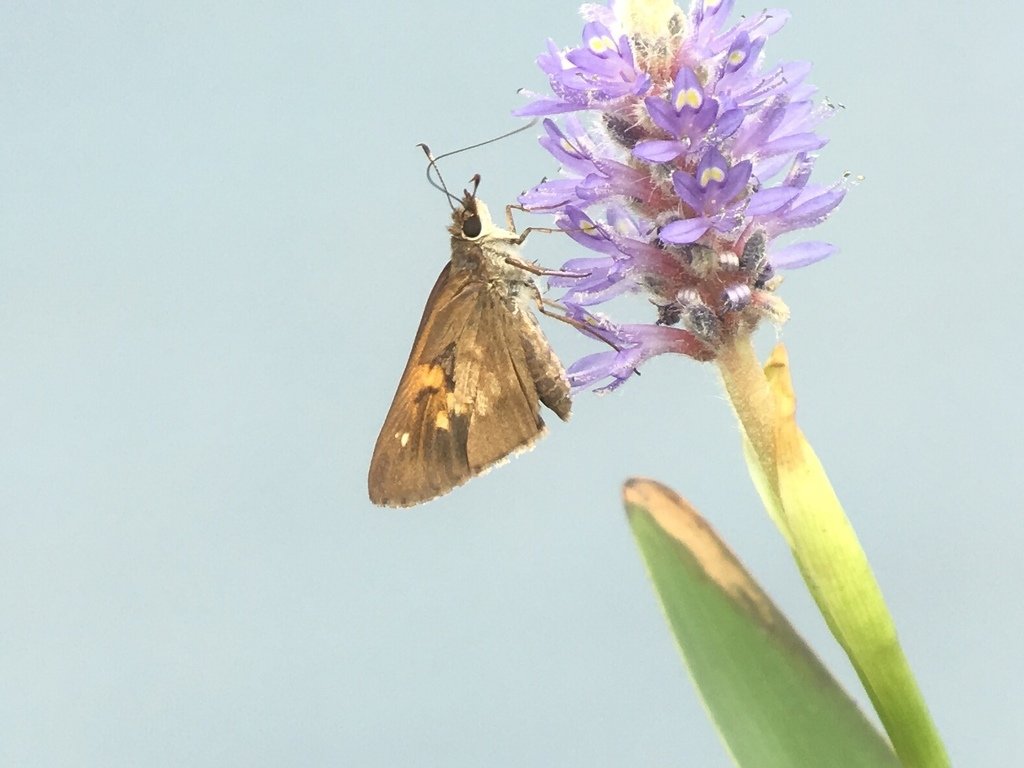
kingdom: Animalia
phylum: Arthropoda
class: Insecta
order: Lepidoptera
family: Hesperiidae
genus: Poanes
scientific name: Poanes viator
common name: Broad-winged Skipper
